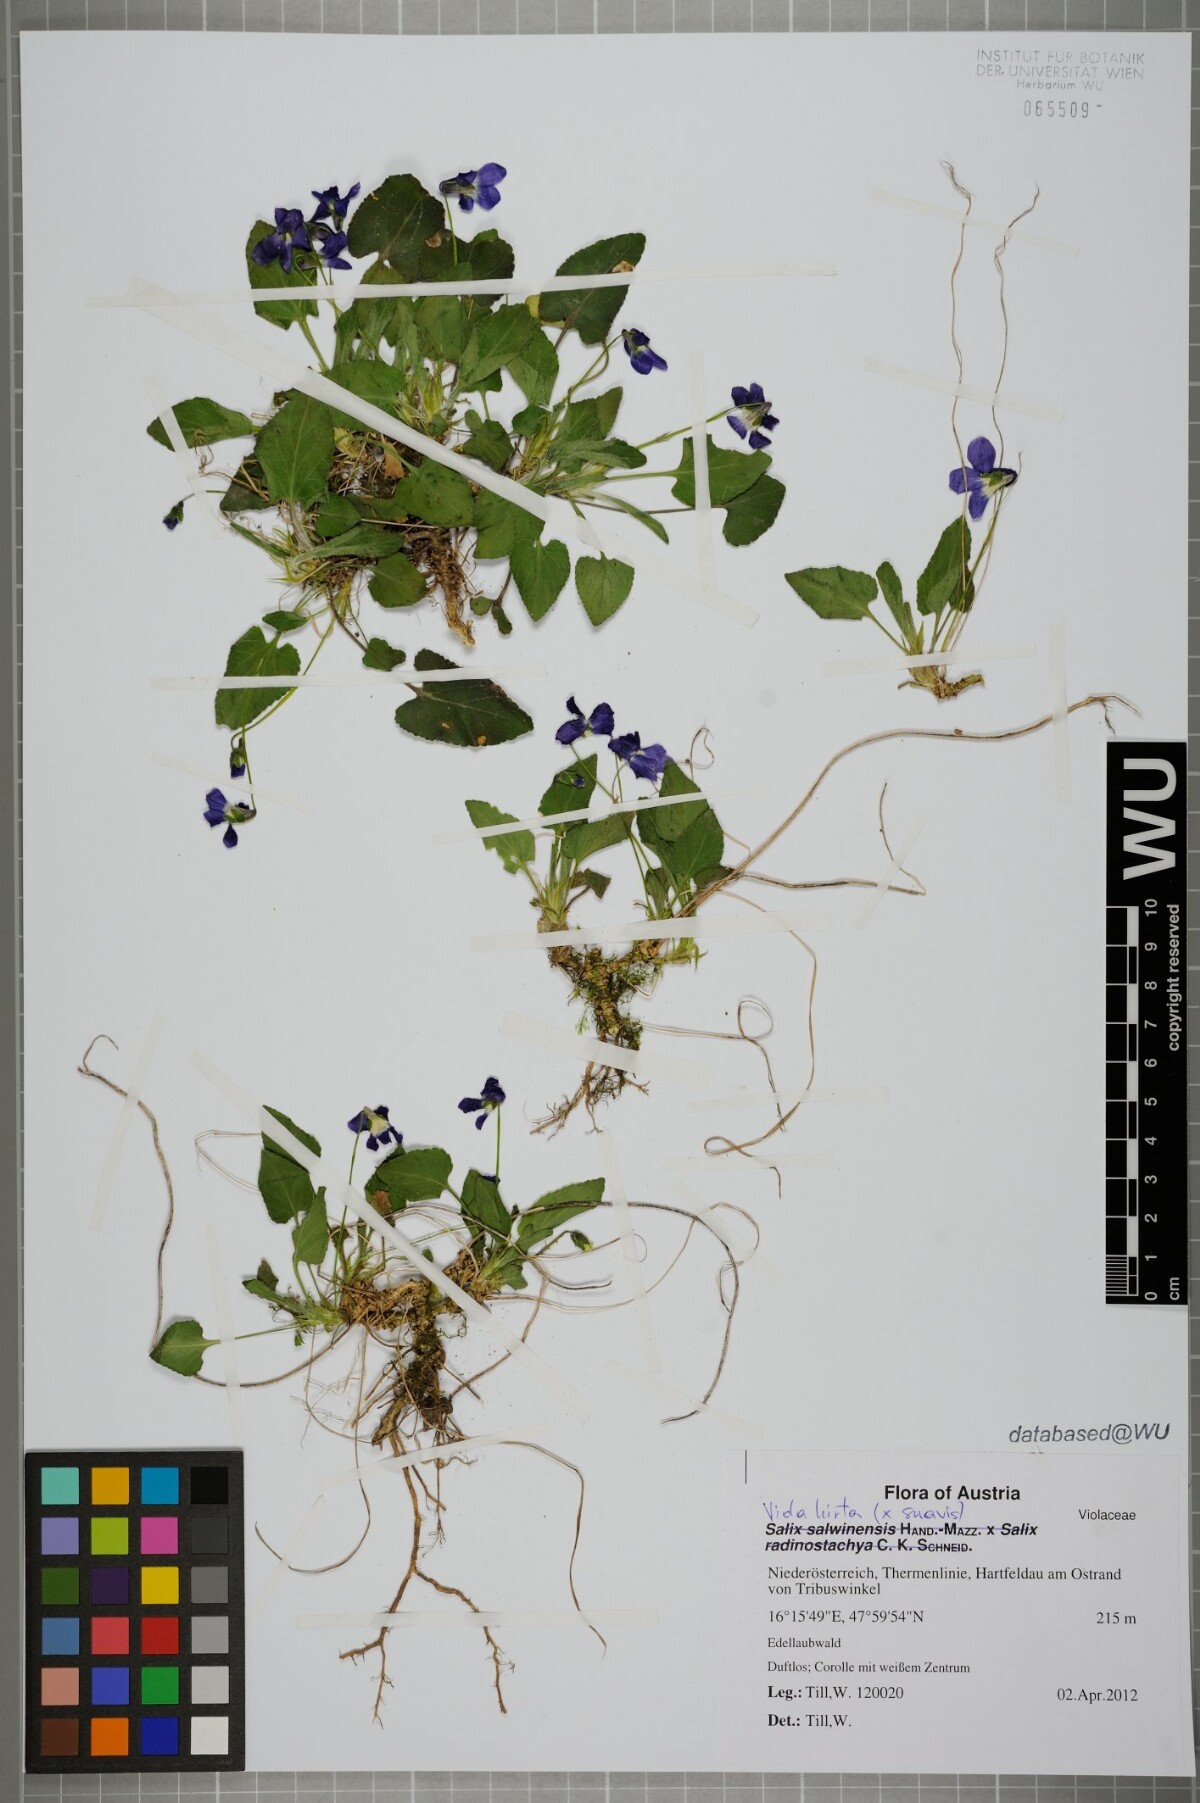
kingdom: Plantae
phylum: Tracheophyta
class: Magnoliopsida
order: Malpighiales
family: Violaceae
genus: Viola
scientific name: Viola hirta
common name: Hairy violet
